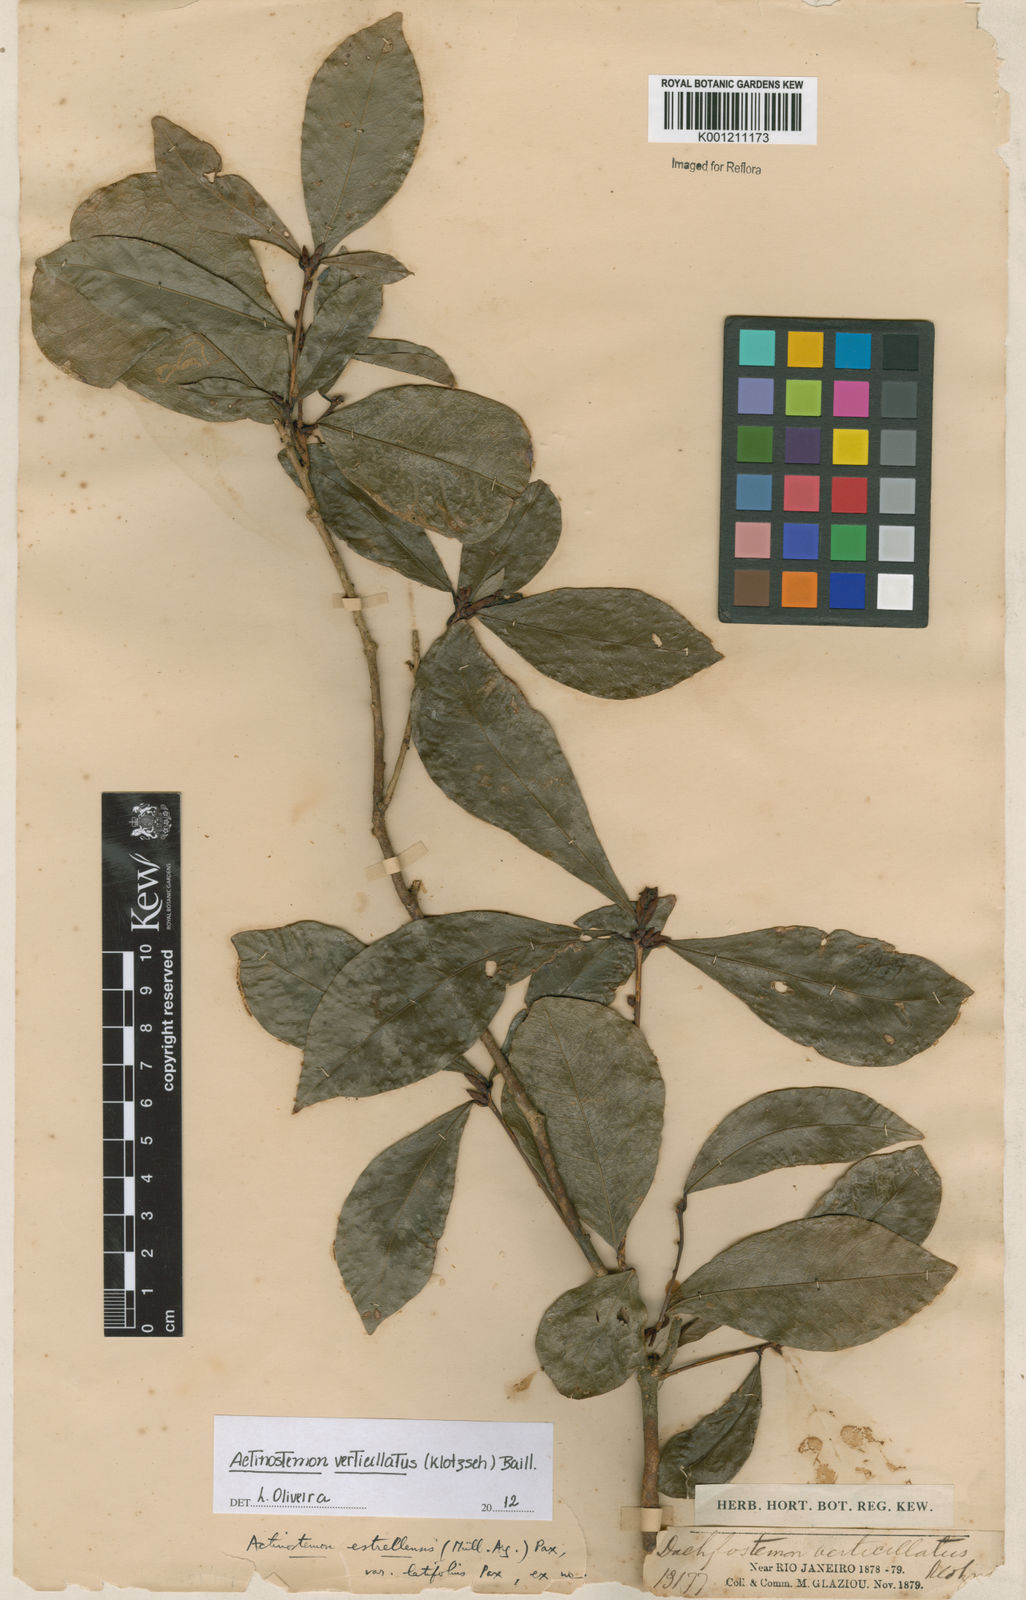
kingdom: Plantae
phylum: Tracheophyta
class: Magnoliopsida
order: Malpighiales
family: Euphorbiaceae
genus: Actinostemon
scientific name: Actinostemon klotzschii
